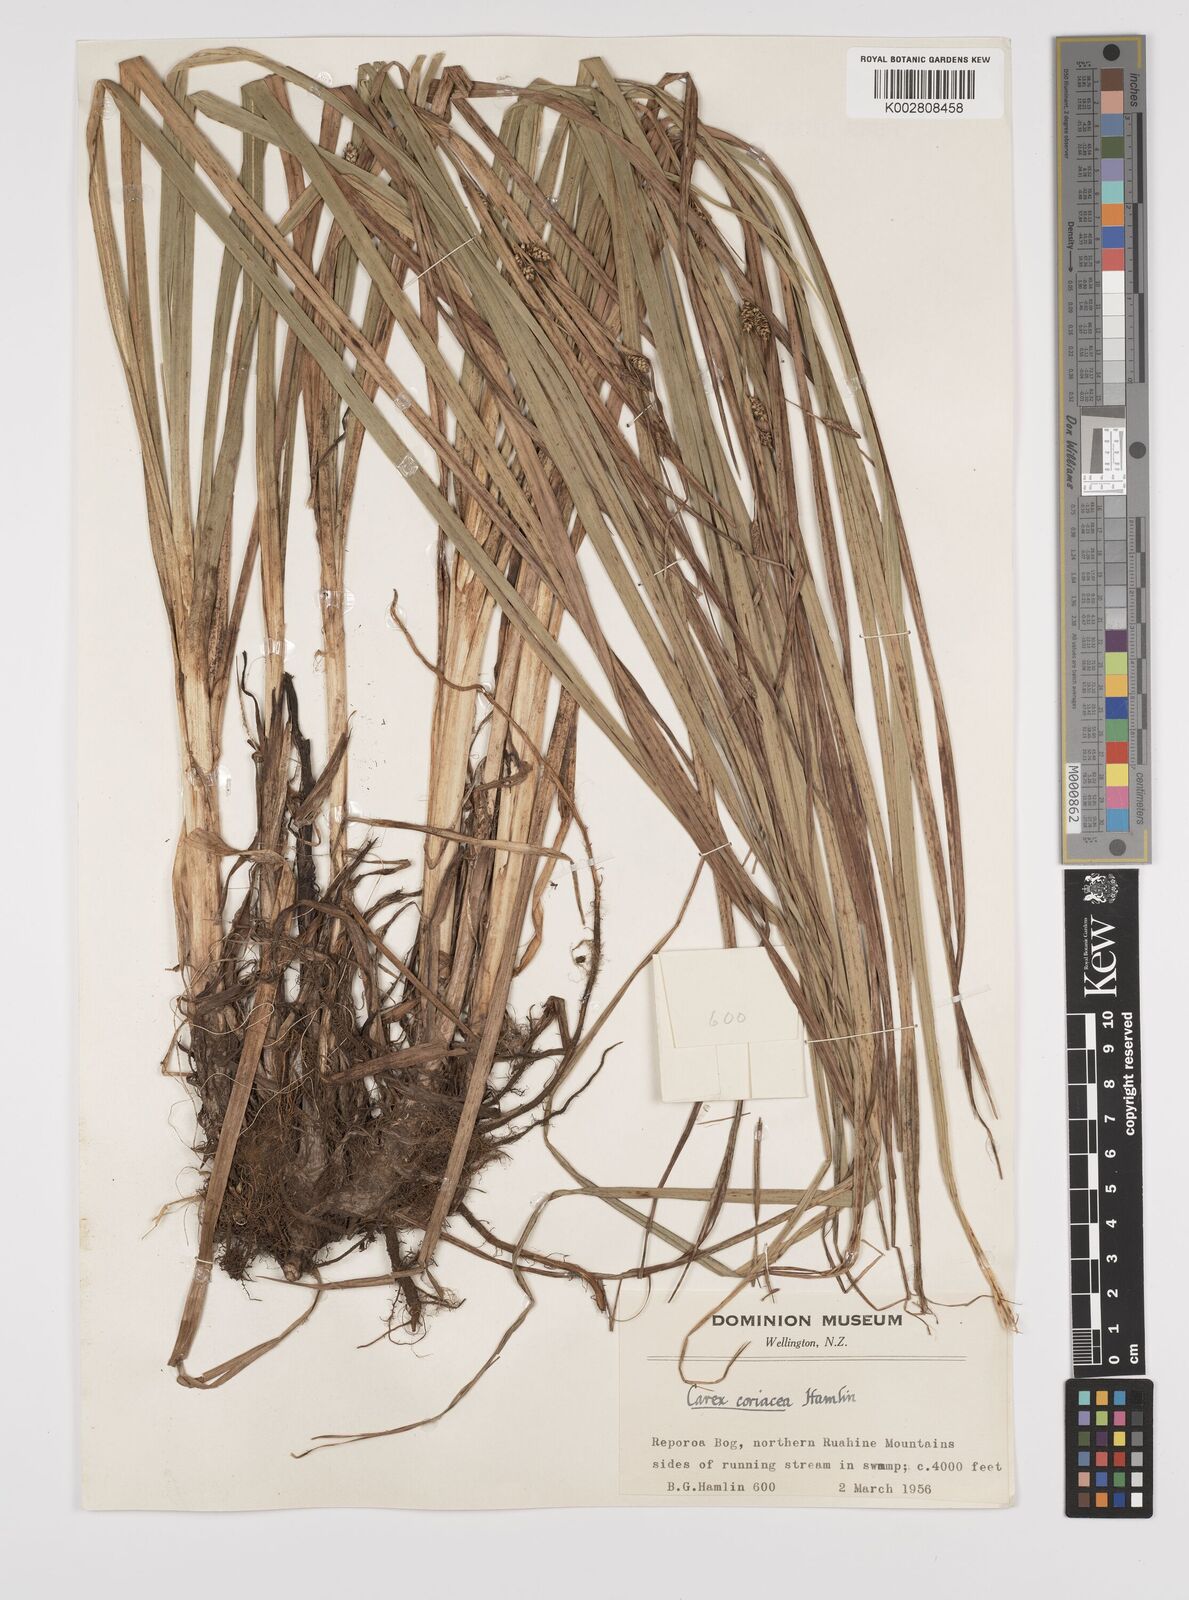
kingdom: Plantae
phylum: Tracheophyta
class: Liliopsida
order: Poales
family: Cyperaceae
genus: Carex
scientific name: Carex coriacea
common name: Rautahi
